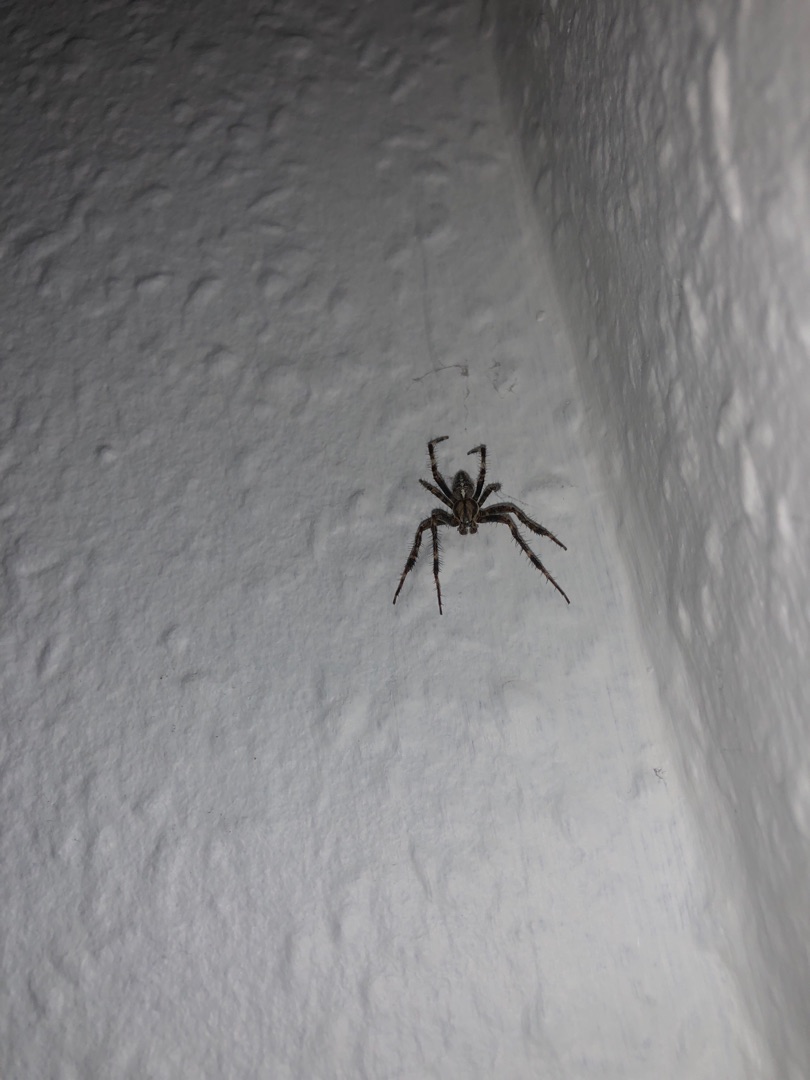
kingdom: Animalia
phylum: Arthropoda
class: Arachnida
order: Araneae
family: Araneidae
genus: Araneus
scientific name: Araneus diadematus
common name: Korsedderkop
